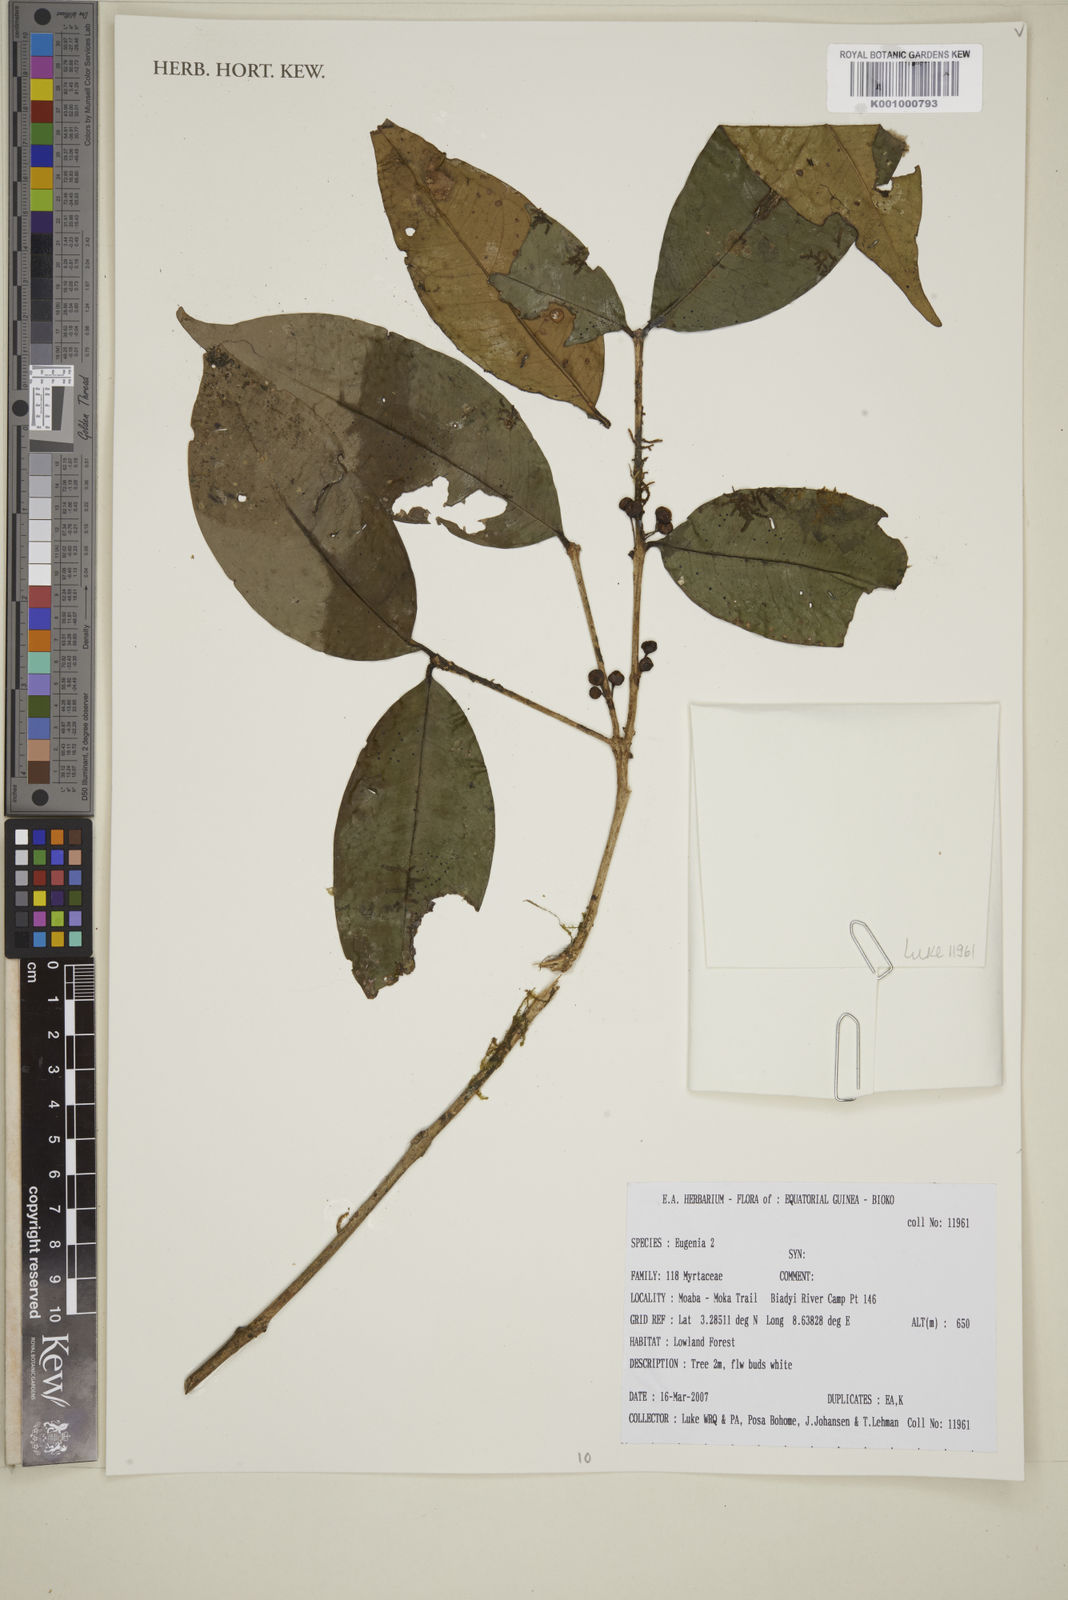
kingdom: Plantae
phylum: Tracheophyta
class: Magnoliopsida
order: Myrtales
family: Myrtaceae
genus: Eugenia
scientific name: Eugenia
